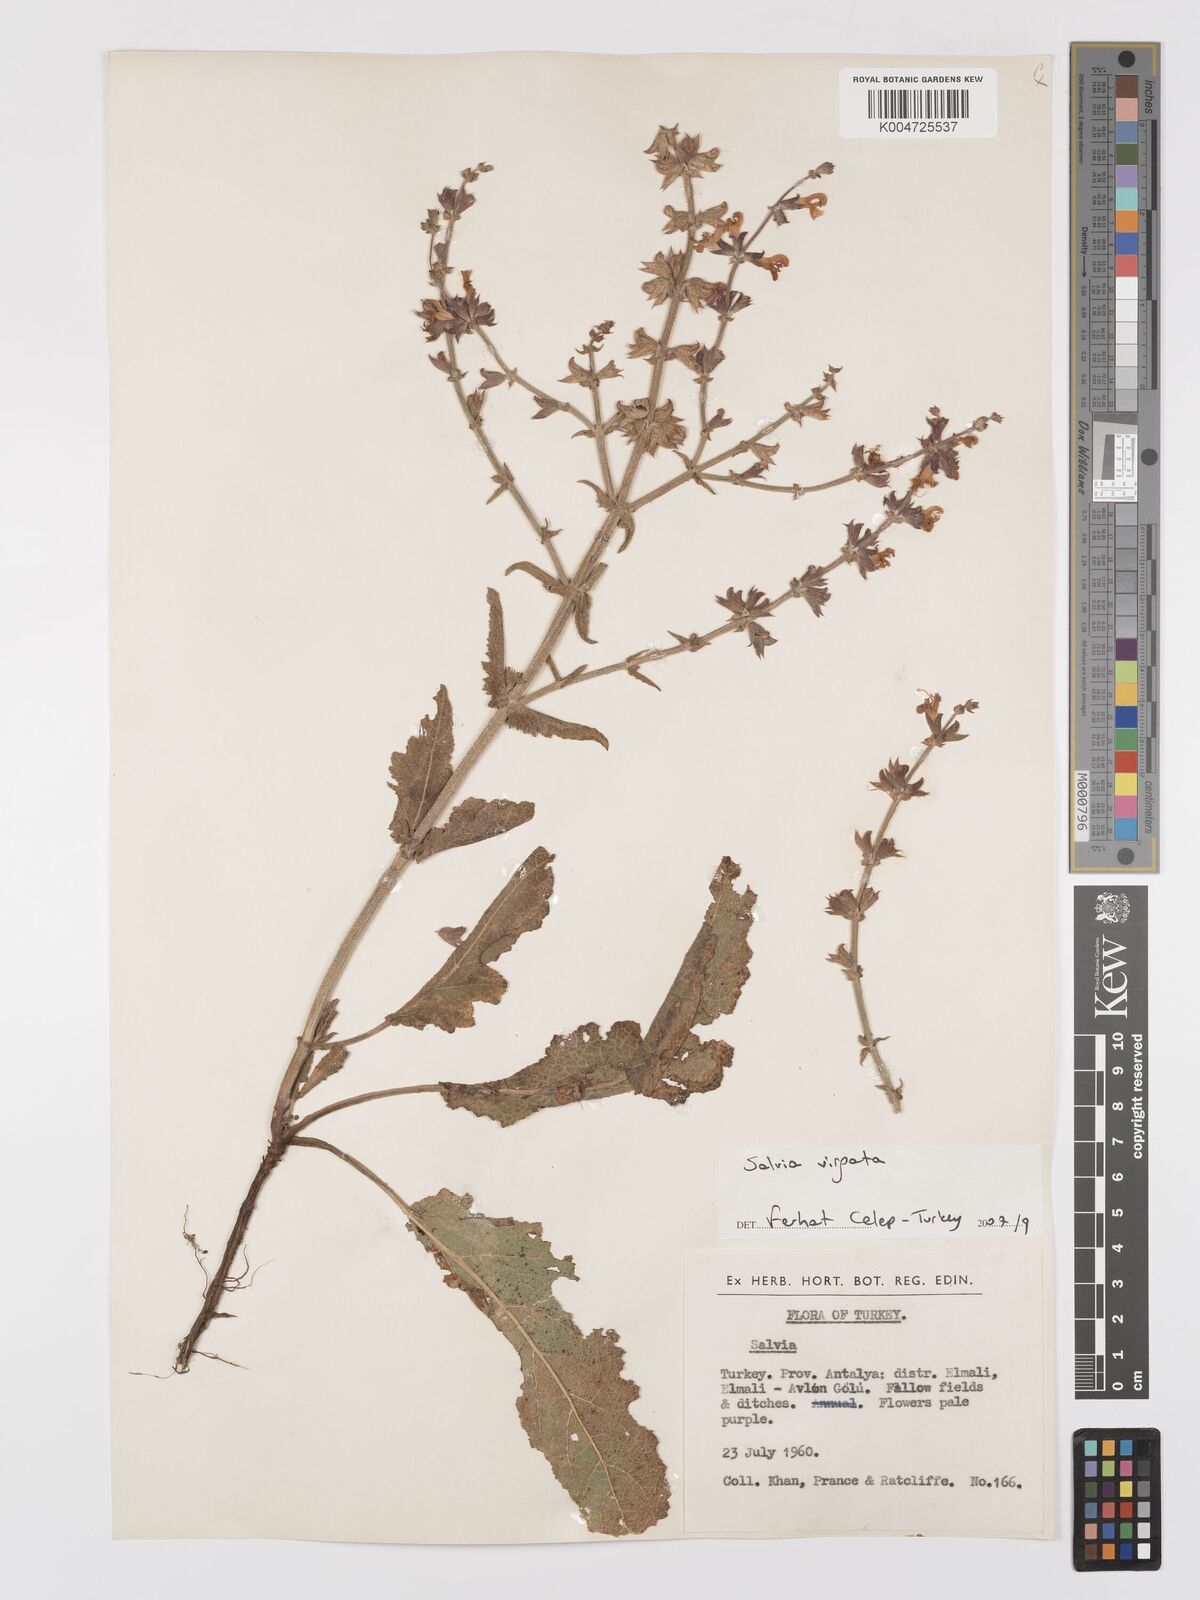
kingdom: Plantae
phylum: Tracheophyta
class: Magnoliopsida
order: Lamiales
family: Lamiaceae
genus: Salvia
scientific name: Salvia
